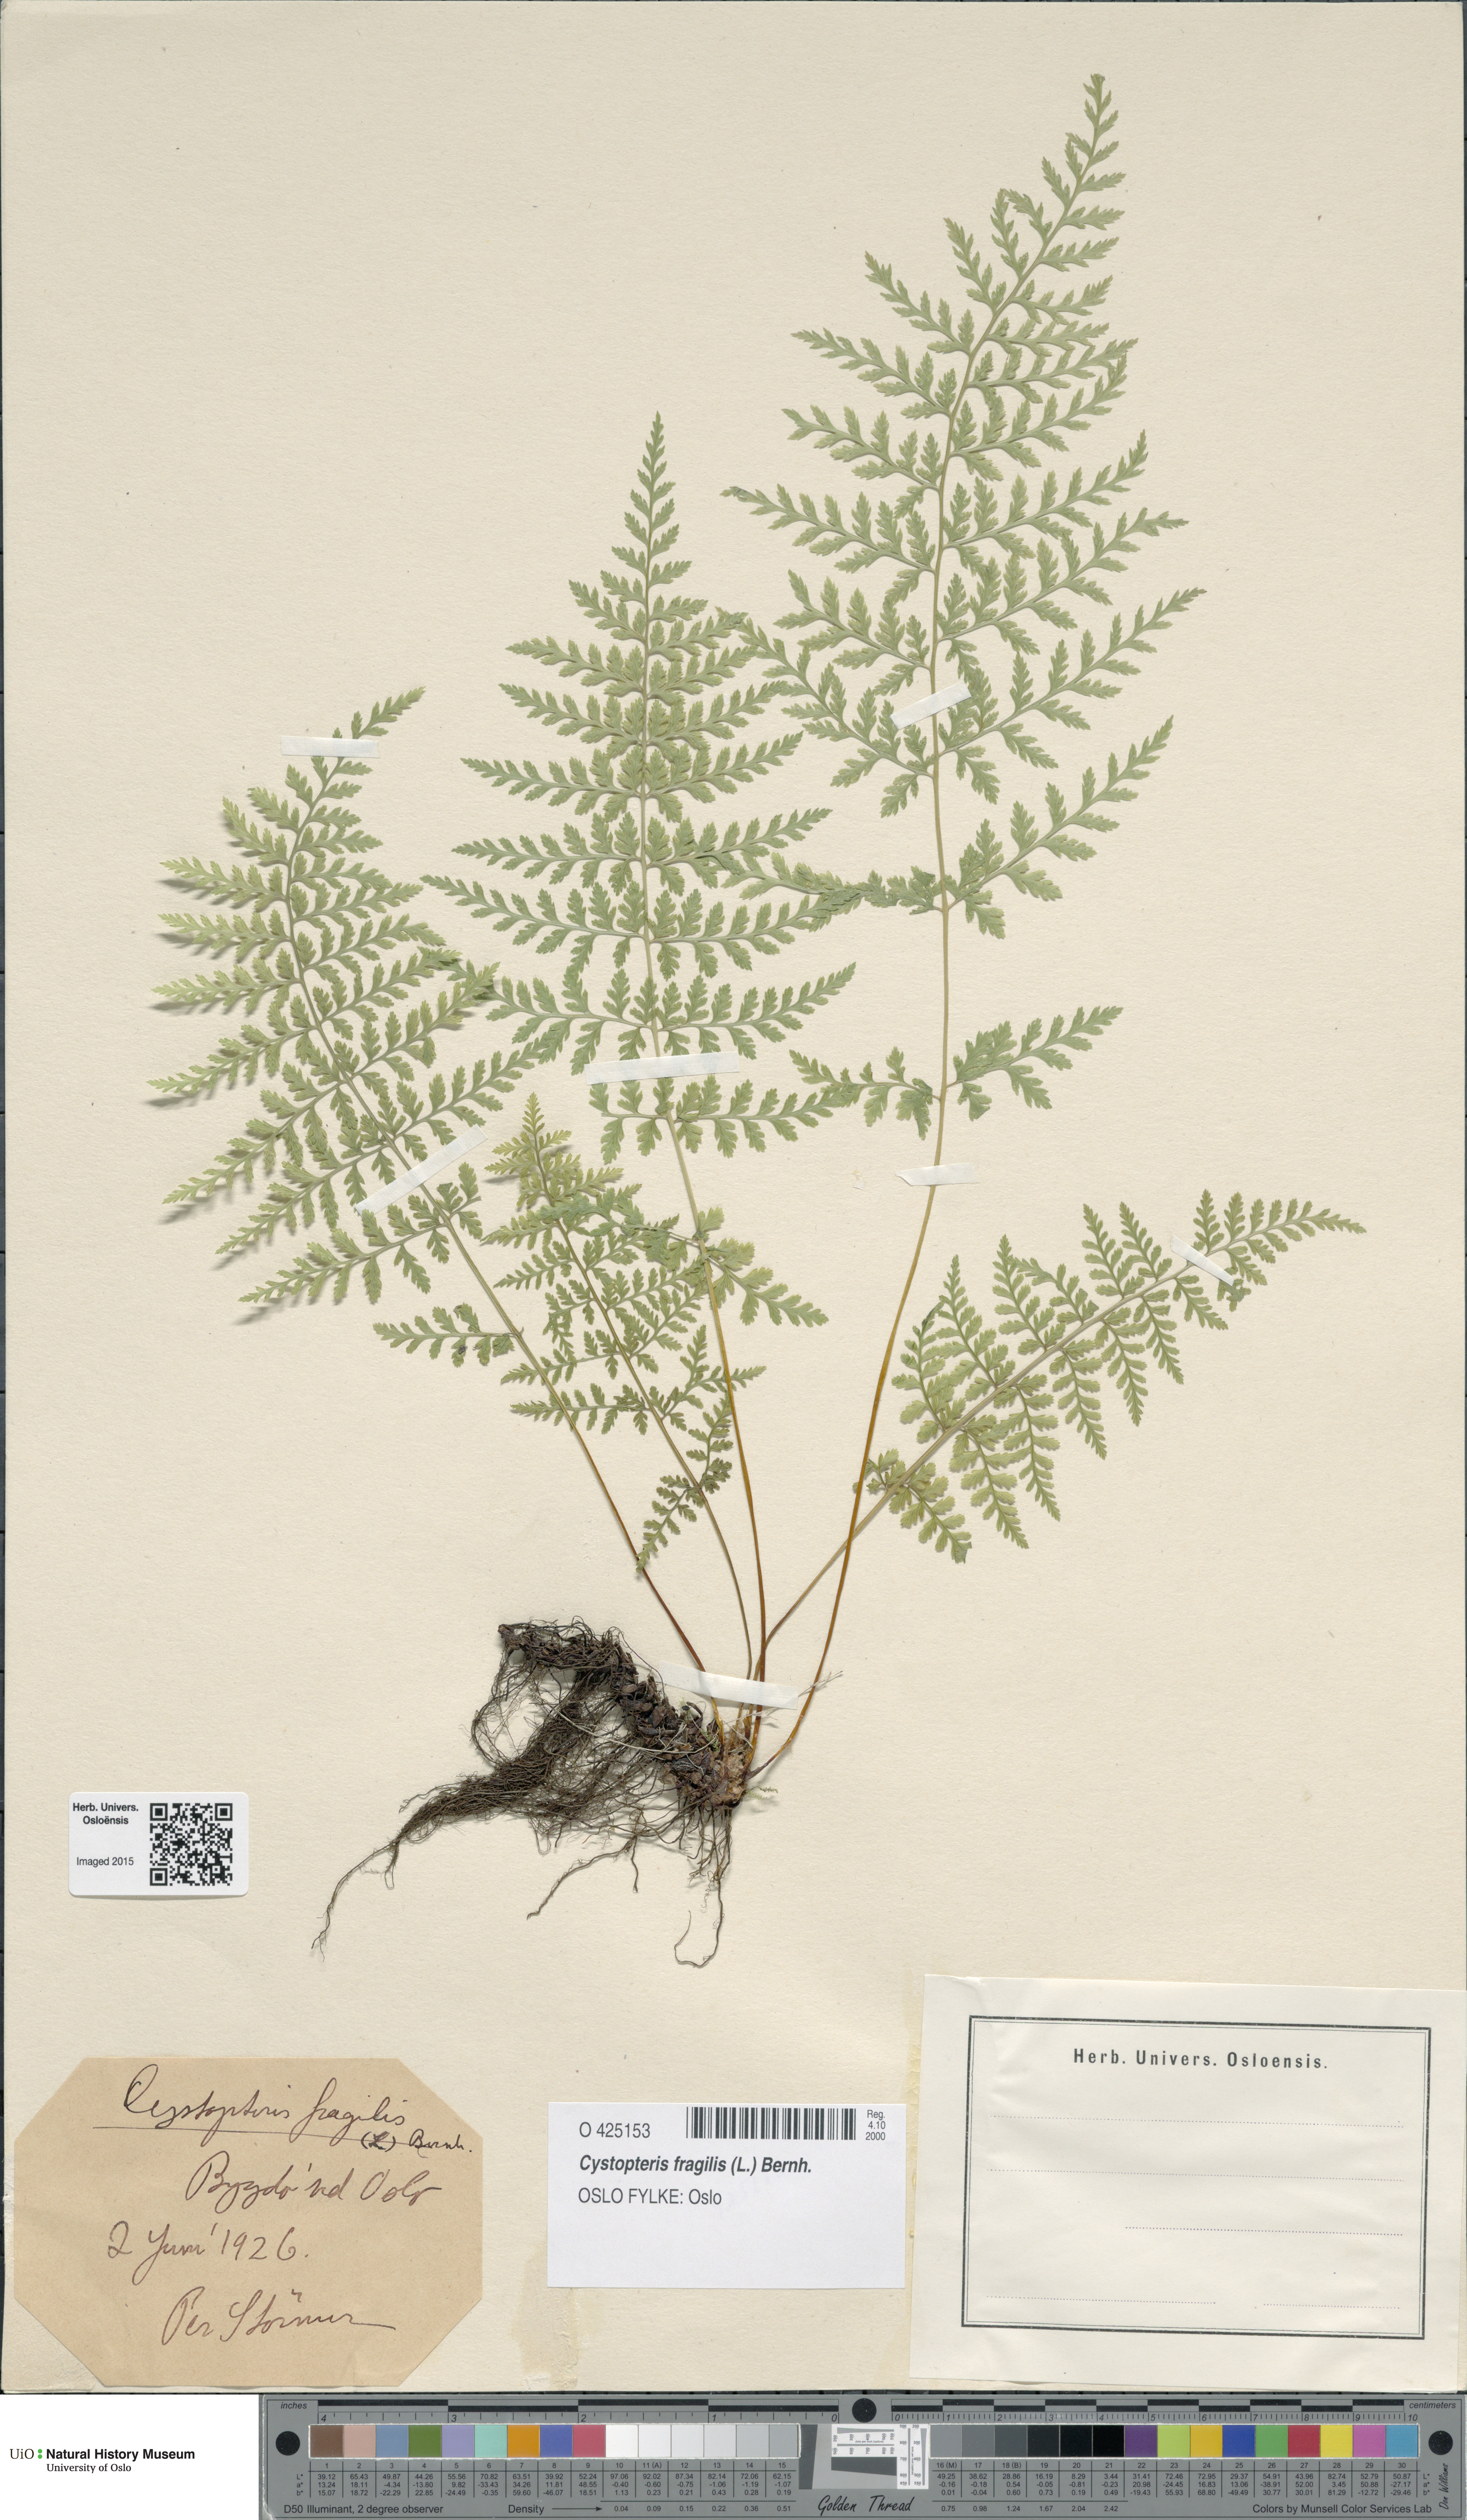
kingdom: Plantae
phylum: Tracheophyta
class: Polypodiopsida
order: Polypodiales
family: Cystopteridaceae
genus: Cystopteris
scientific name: Cystopteris fragilis
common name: Brittle bladder fern
